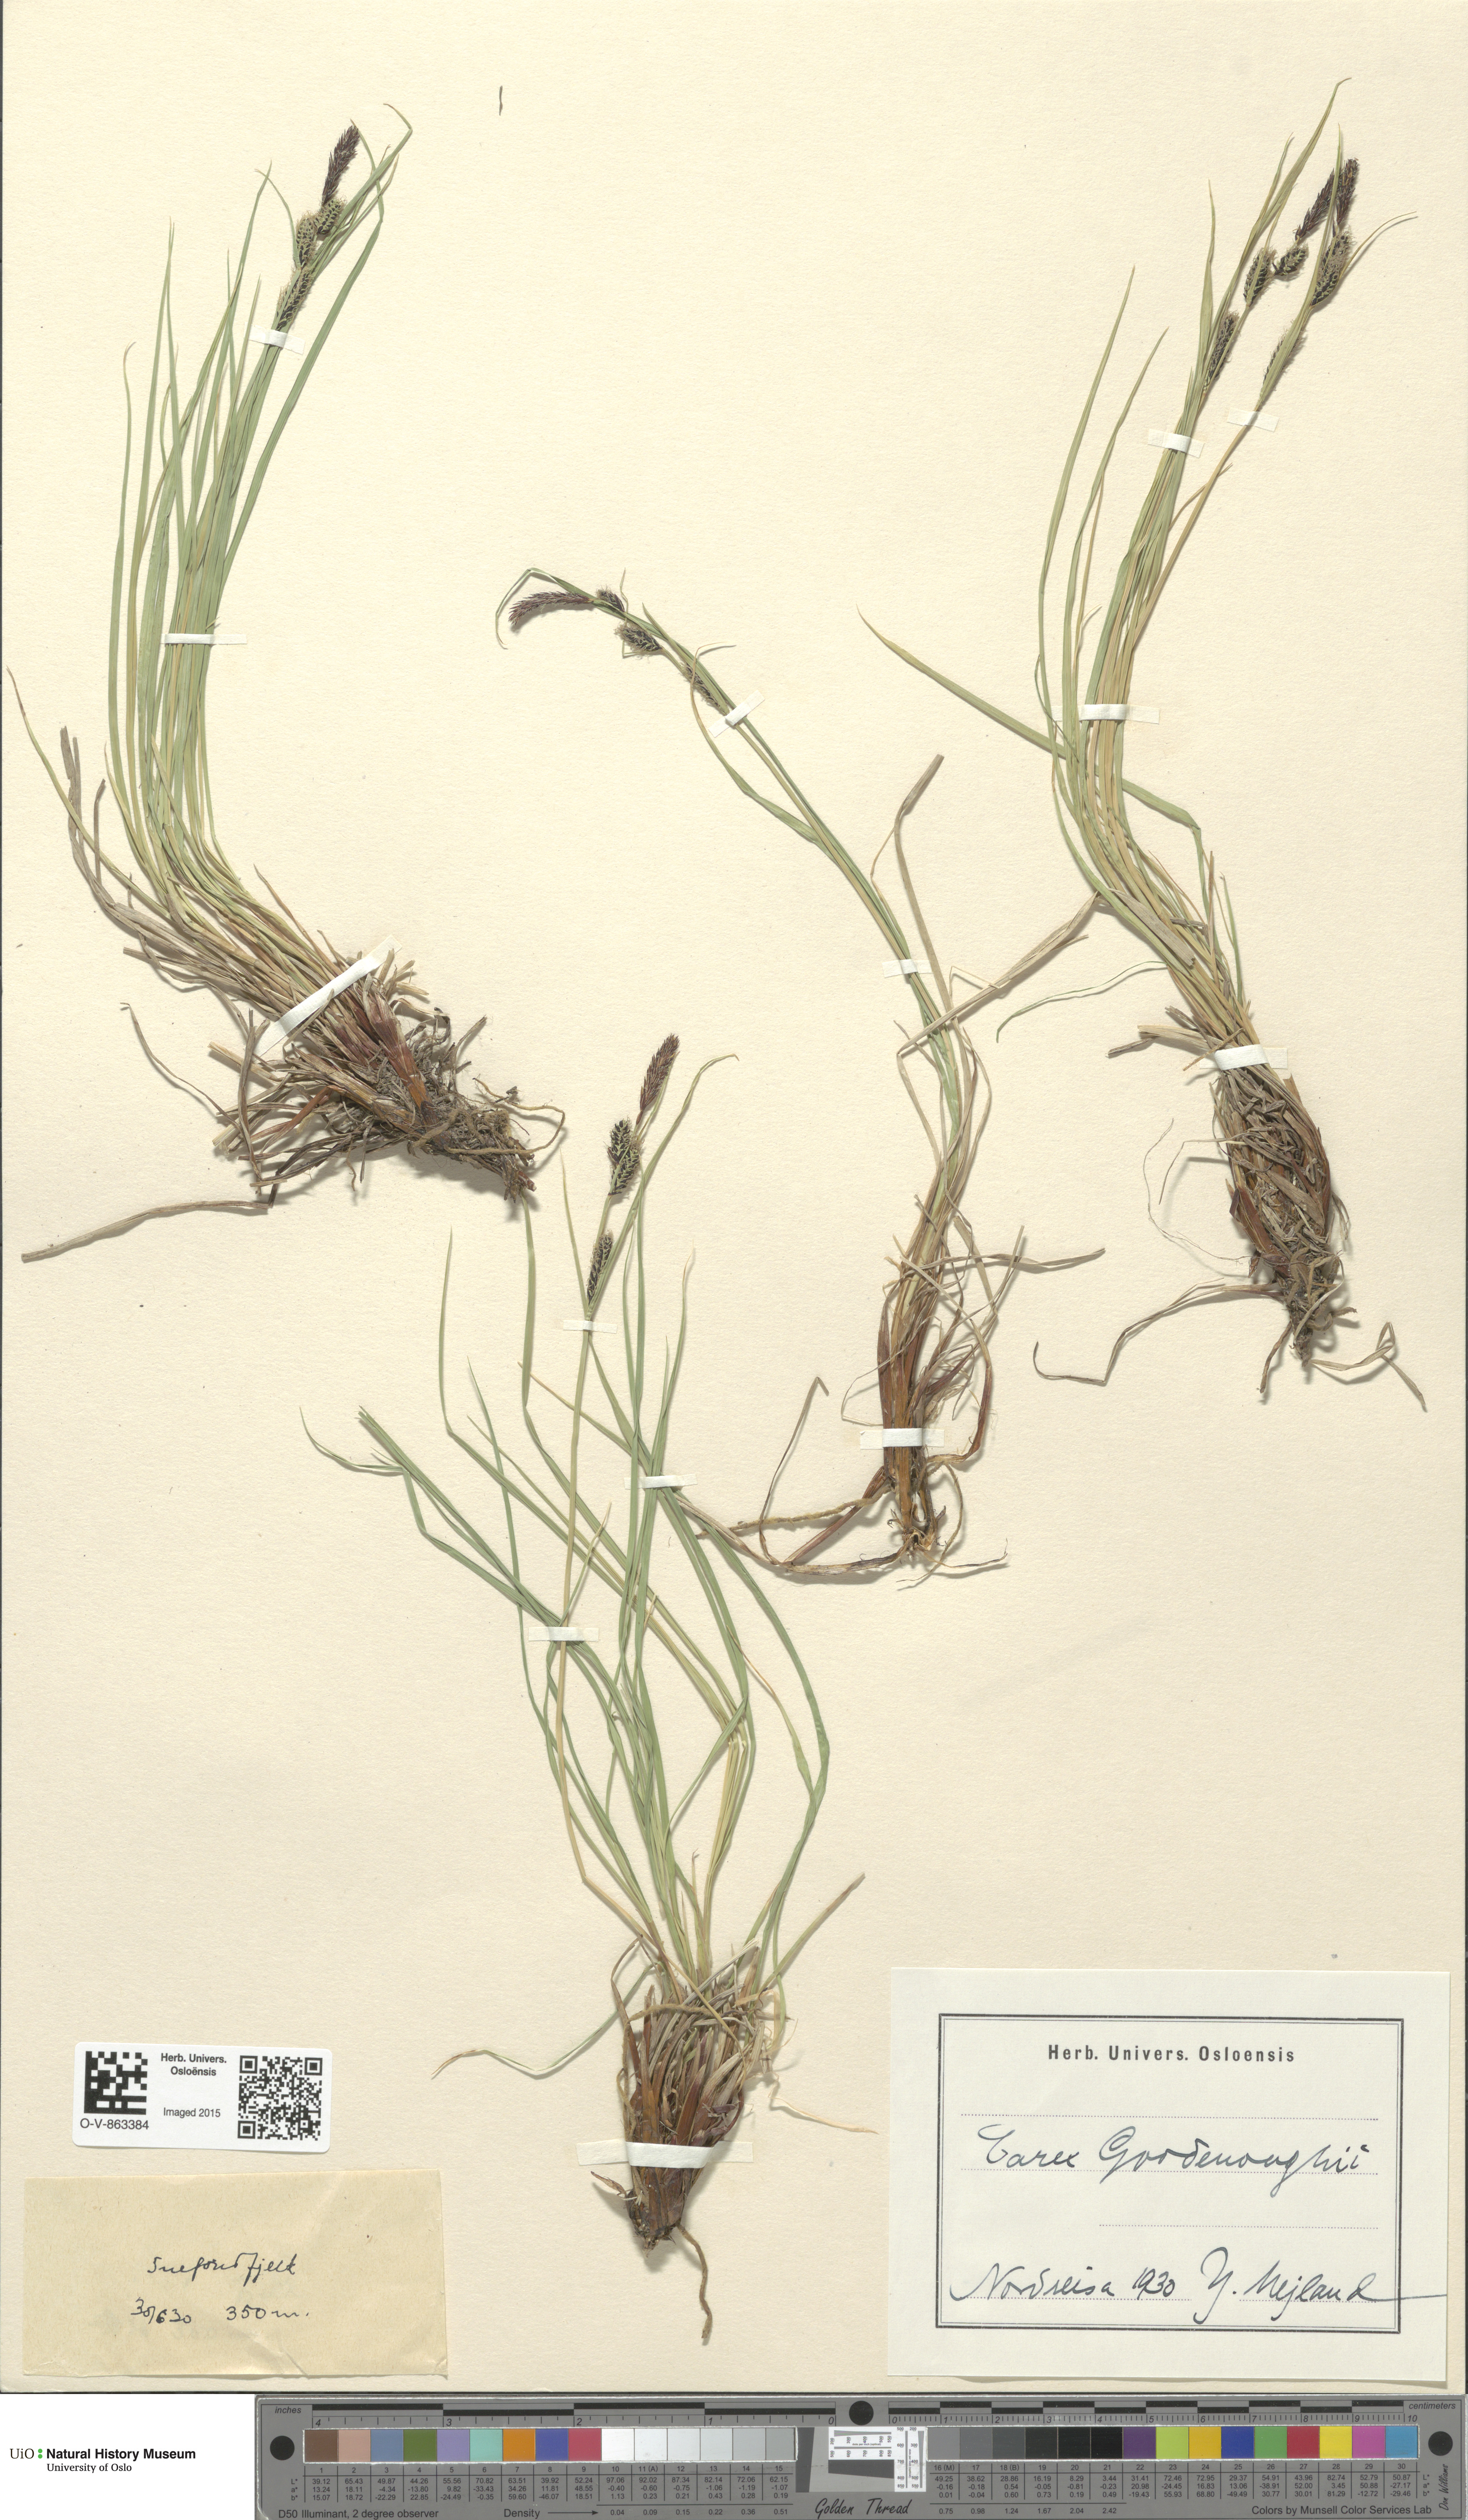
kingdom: Plantae
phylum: Tracheophyta
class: Liliopsida
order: Poales
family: Cyperaceae
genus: Carex
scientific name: Carex nigra
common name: Common sedge
